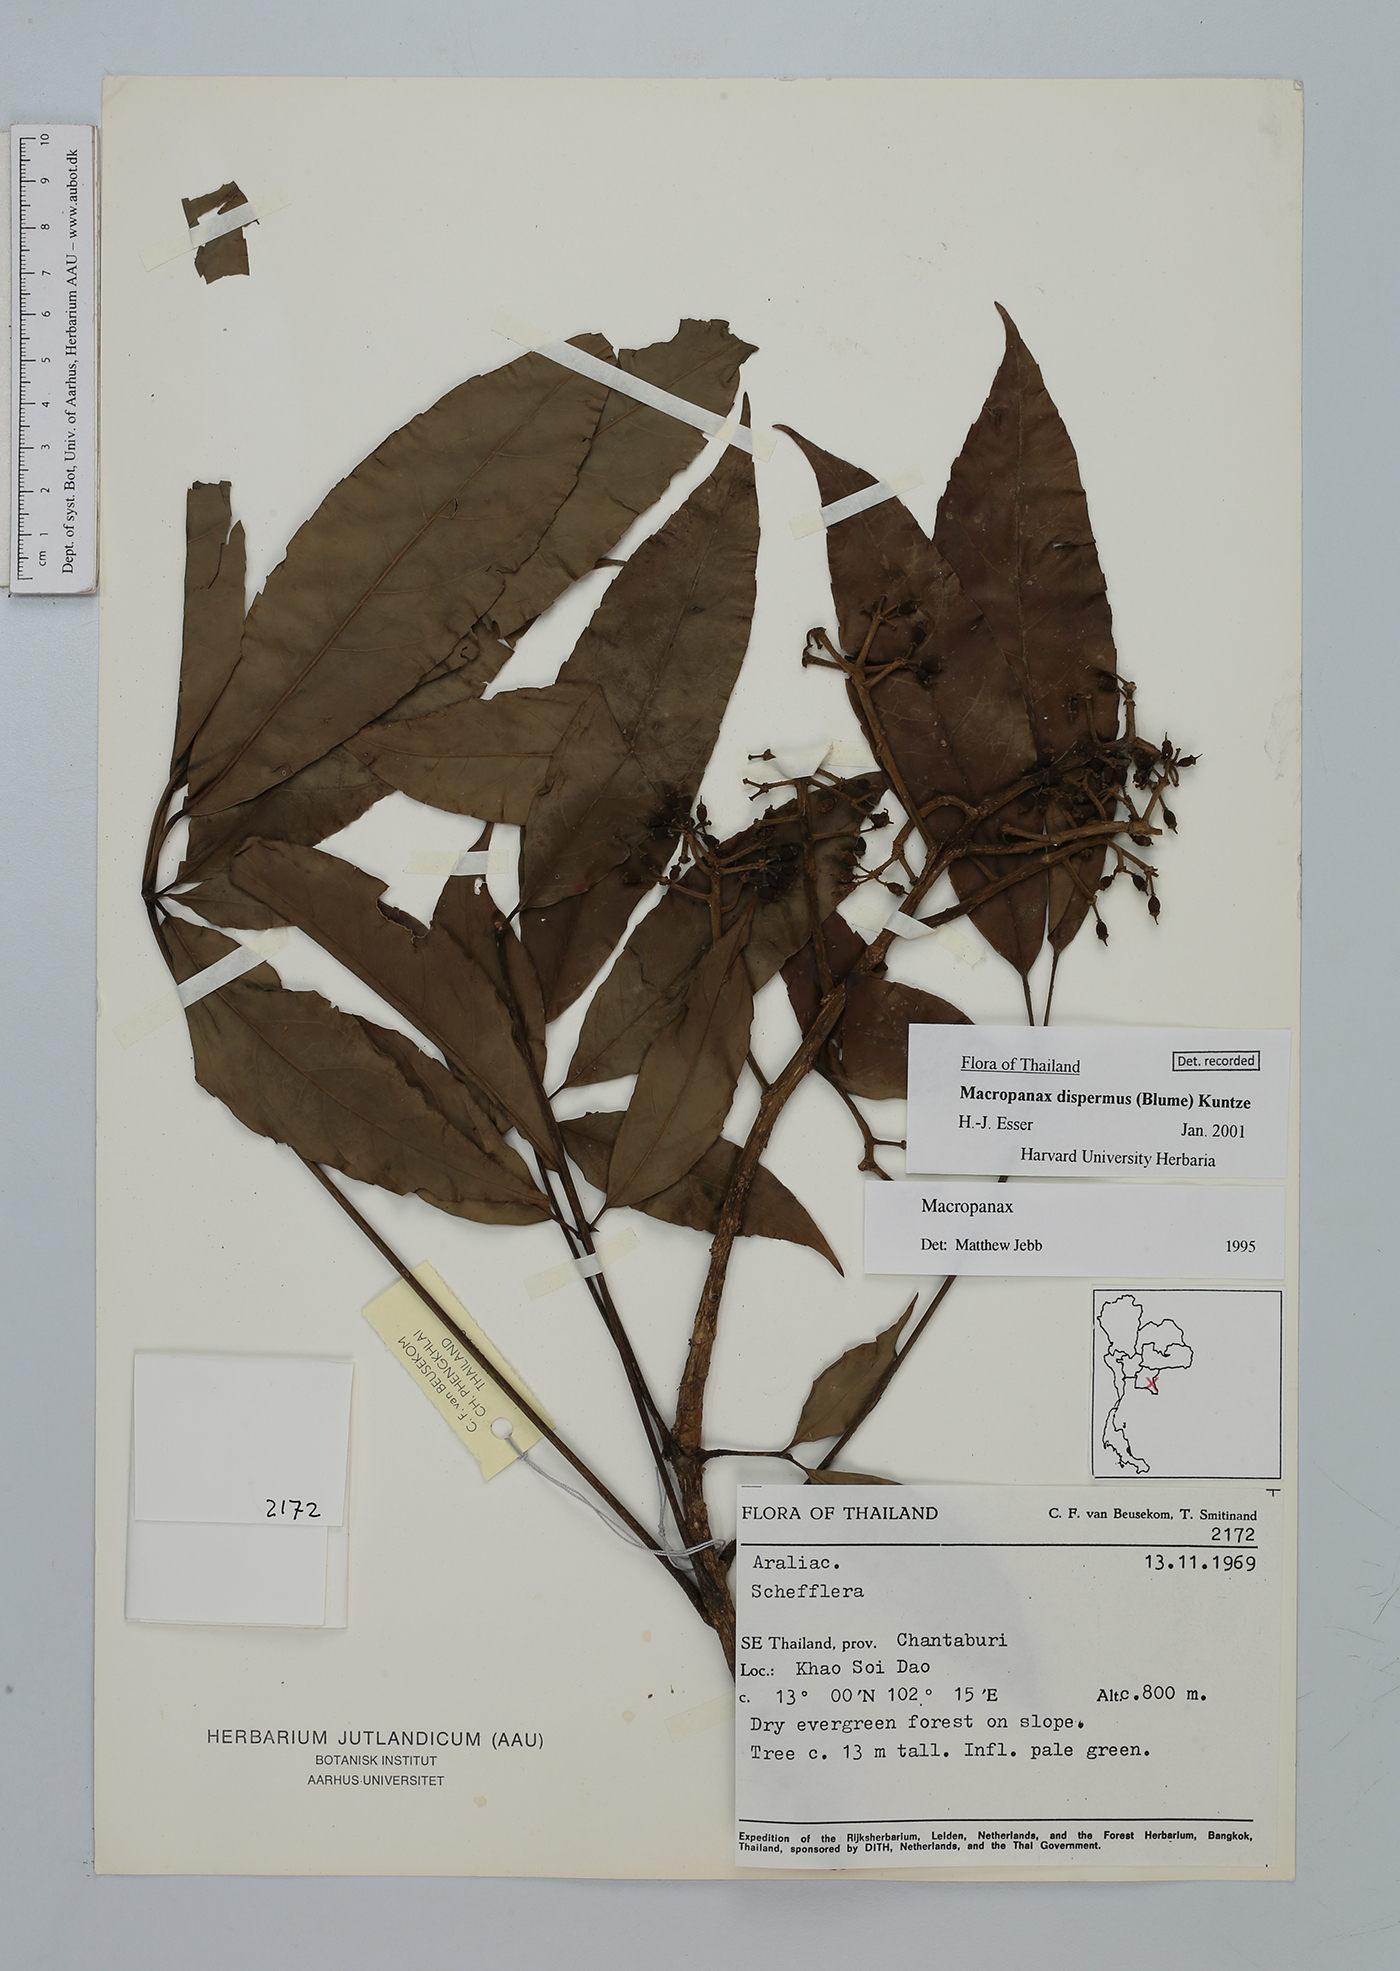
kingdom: Plantae
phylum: Tracheophyta
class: Magnoliopsida
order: Apiales
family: Araliaceae
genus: Macropanax
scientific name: Macropanax dispermus
